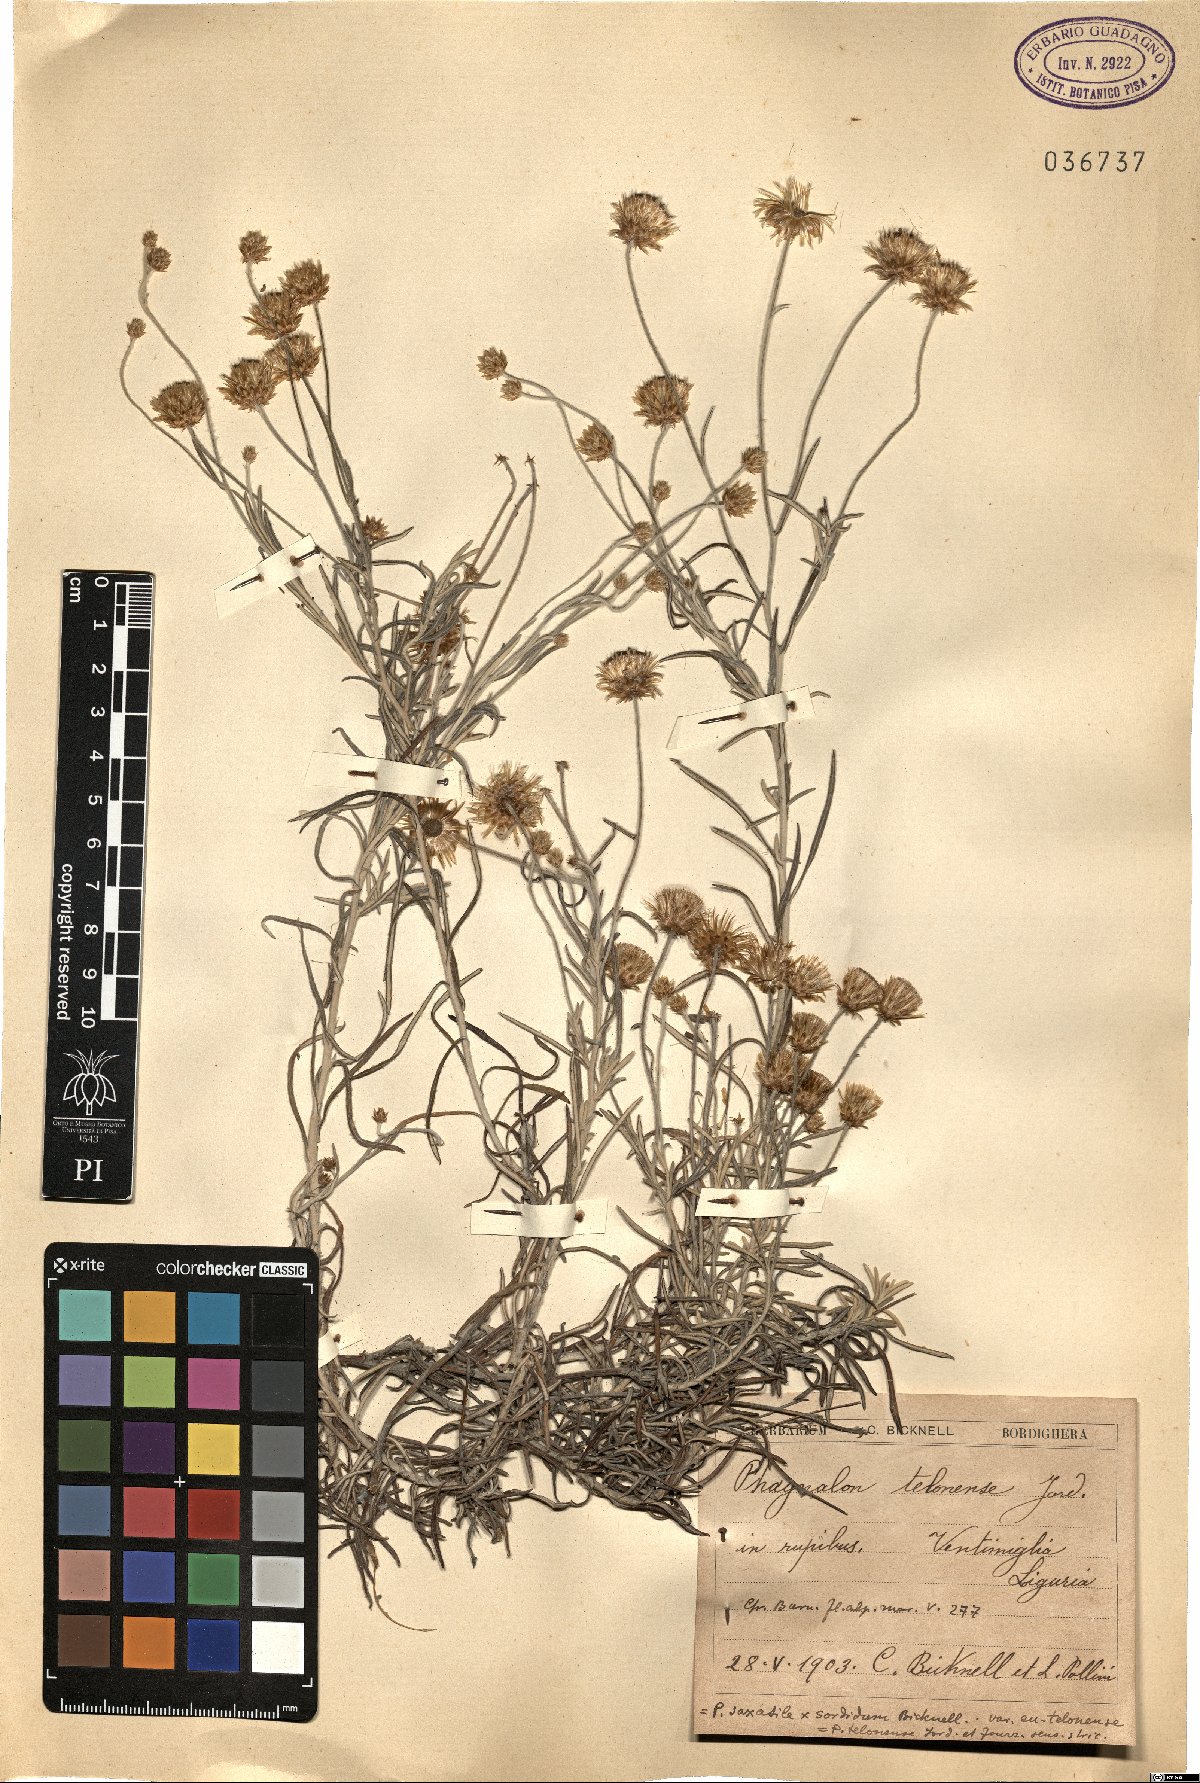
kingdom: Plantae
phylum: Tracheophyta
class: Magnoliopsida
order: Asterales
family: Asteraceae
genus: Phagnalon
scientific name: Phagnalon telonense
